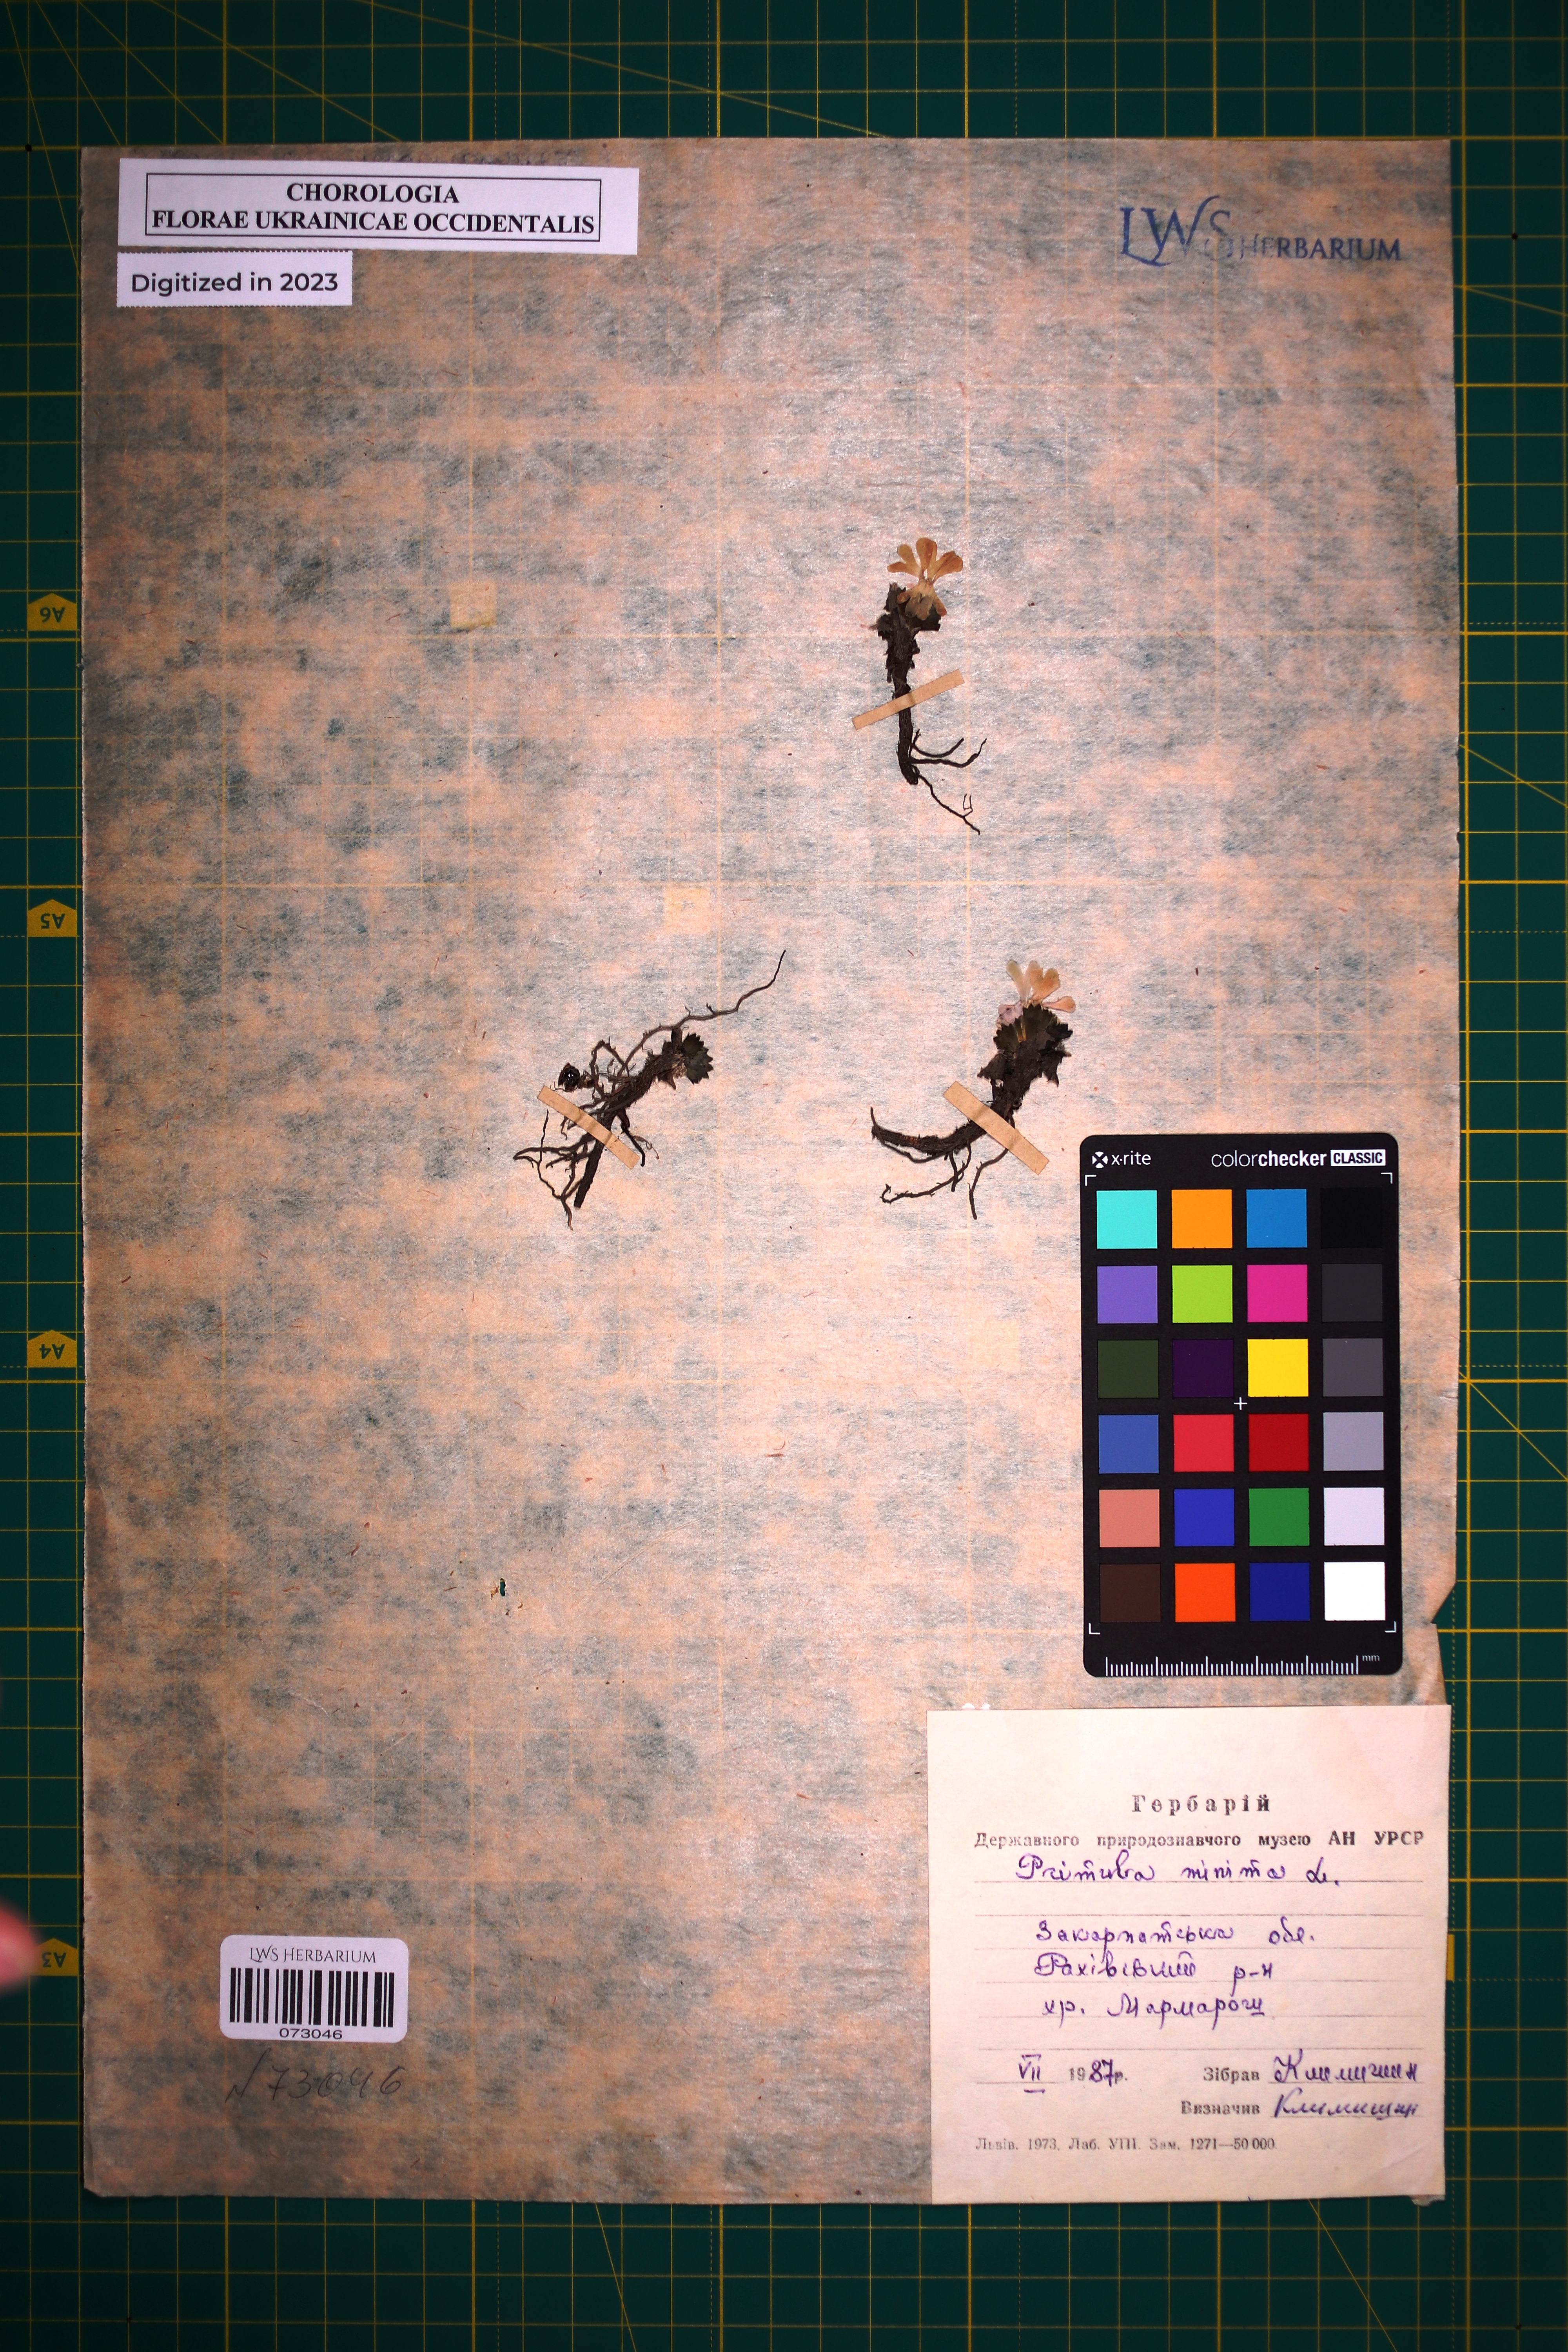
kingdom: Plantae
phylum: Tracheophyta
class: Magnoliopsida
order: Ericales
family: Primulaceae
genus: Primula
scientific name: Primula minima
